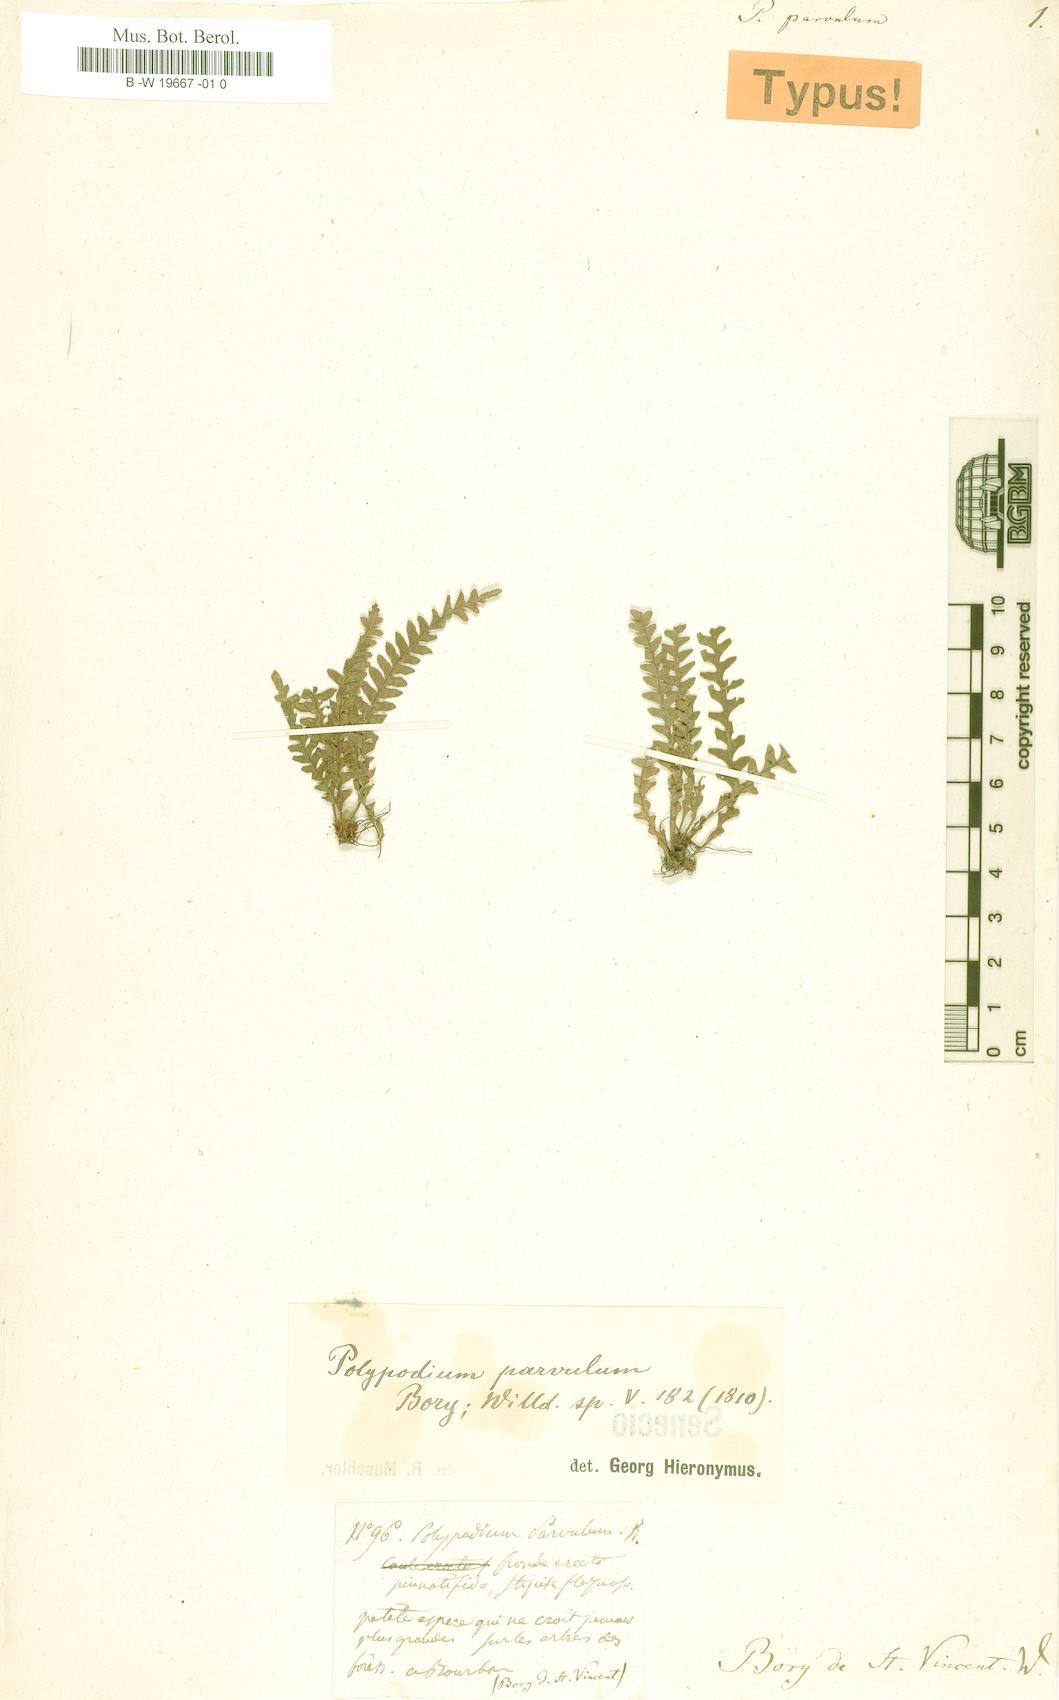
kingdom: Plantae
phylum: Tracheophyta
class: Polypodiopsida
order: Polypodiales
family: Polypodiaceae
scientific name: Polypodiaceae
